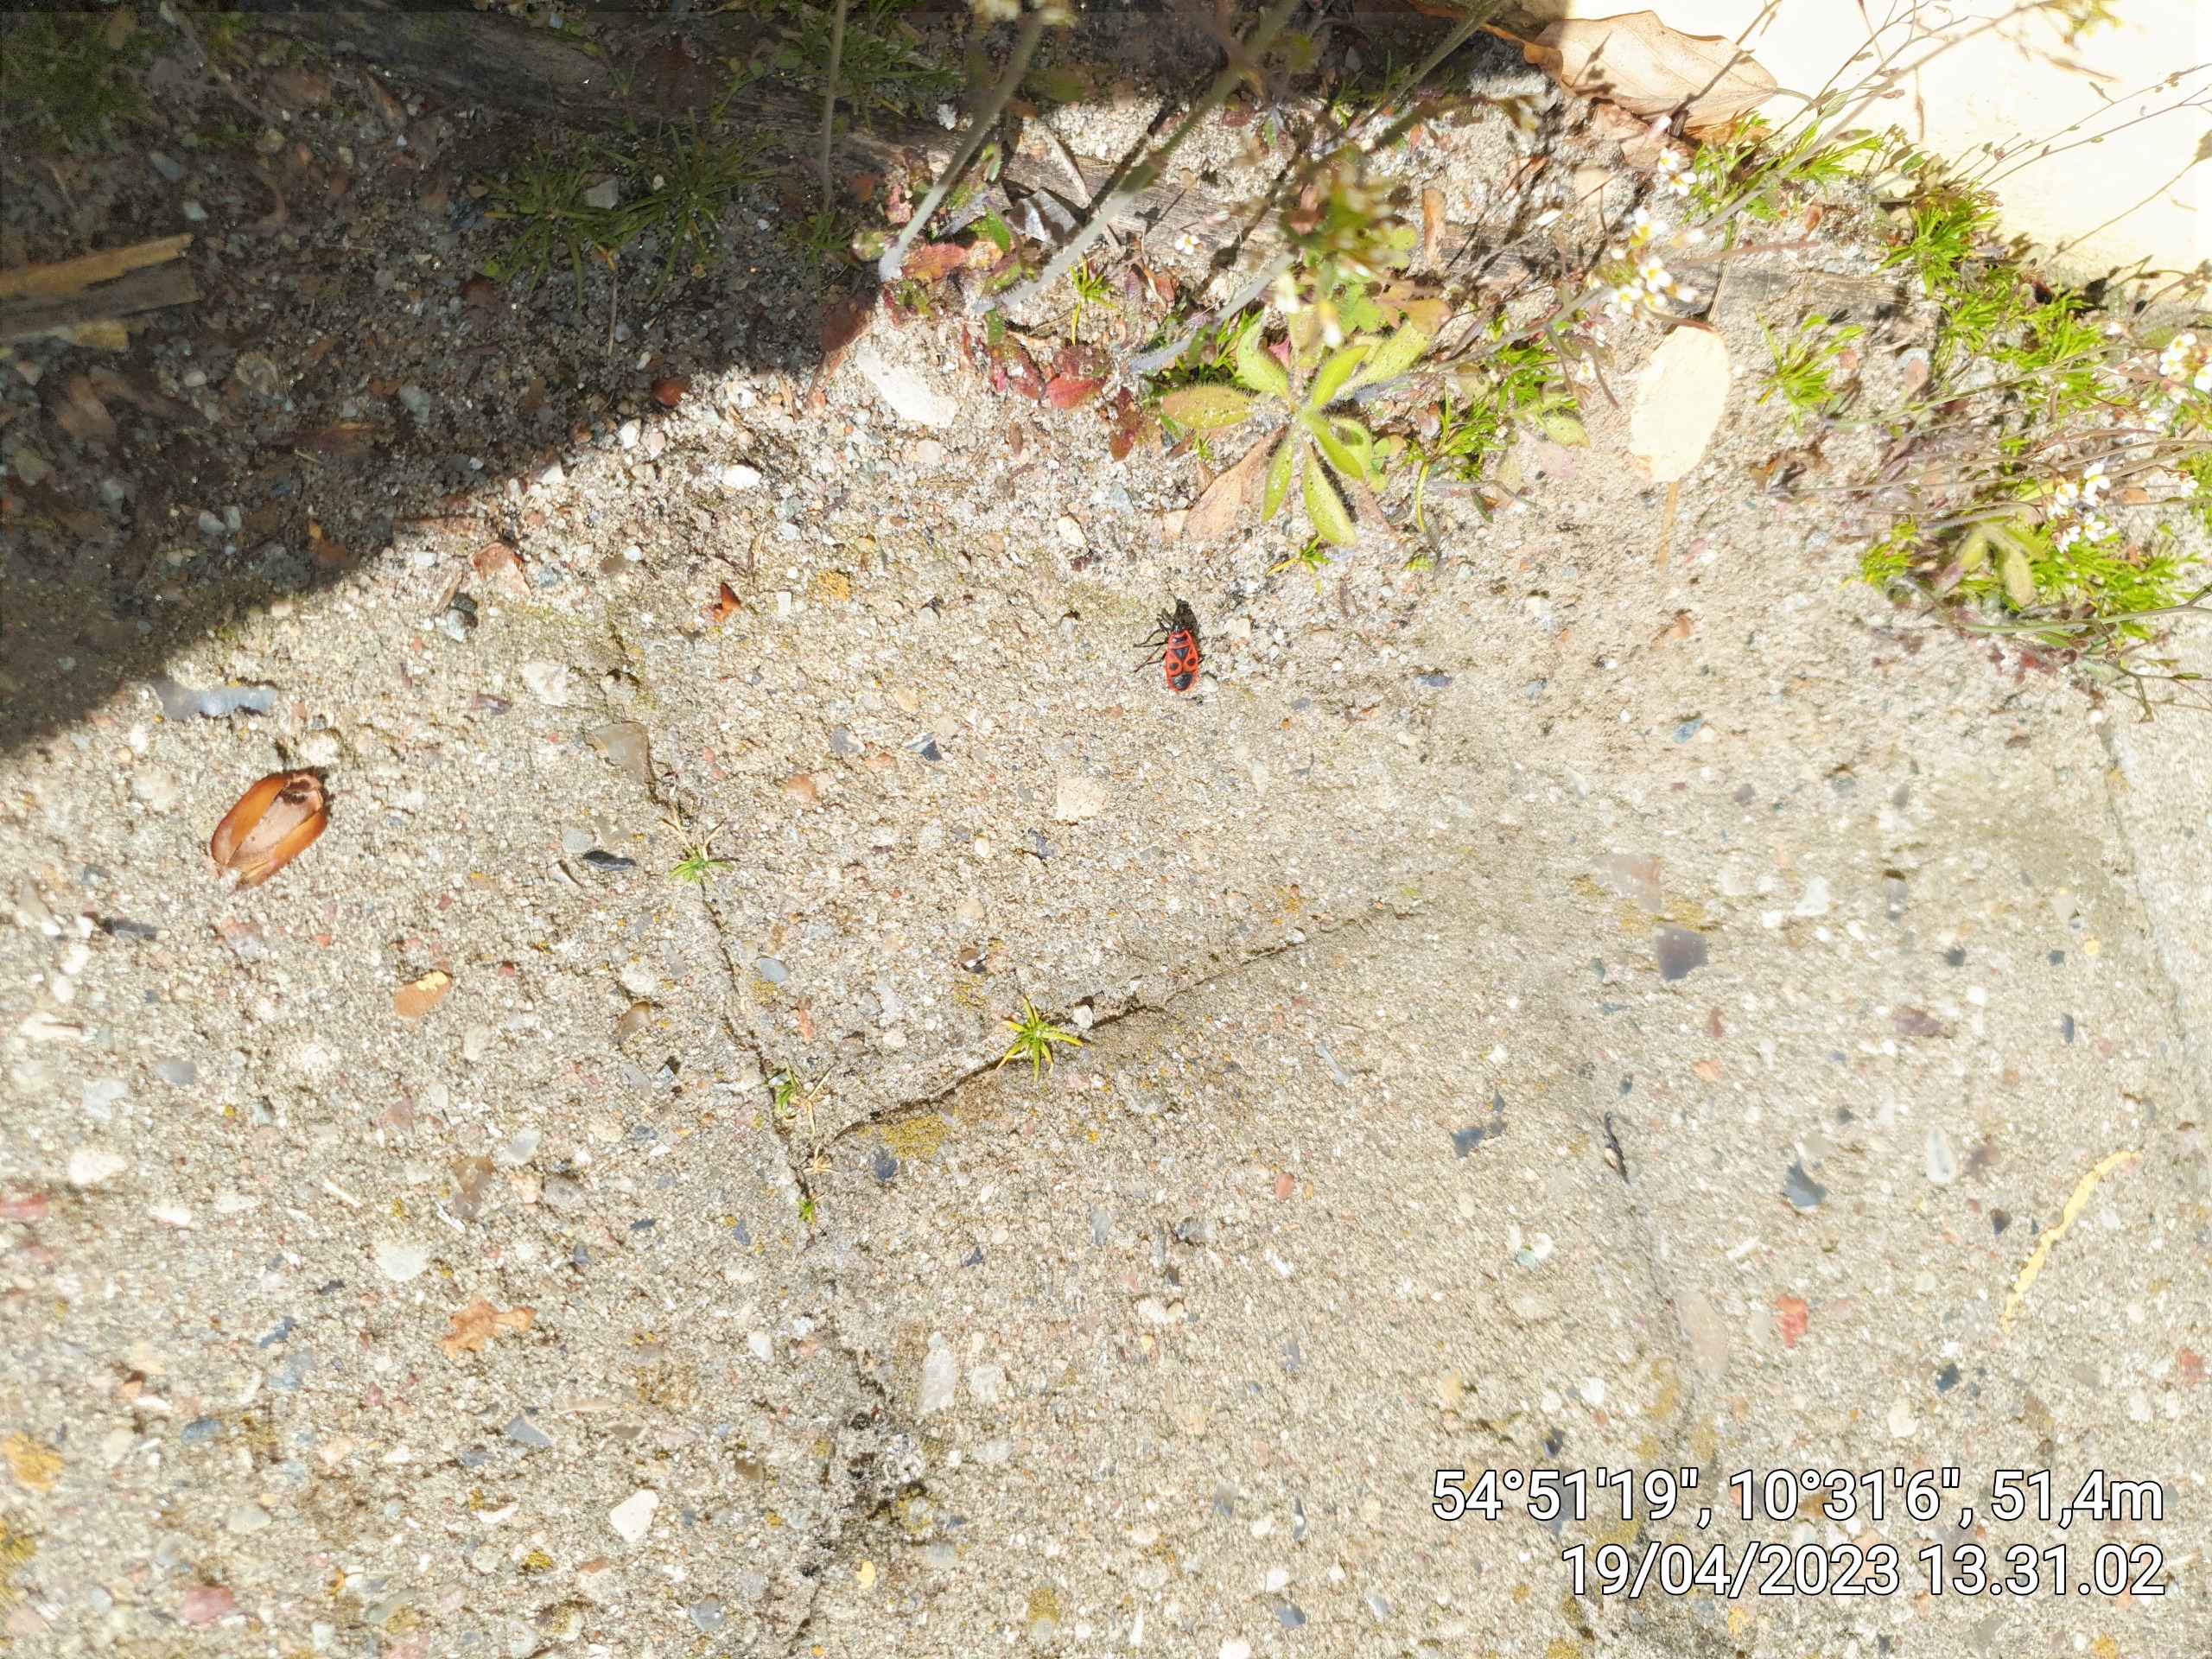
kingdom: Animalia
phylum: Arthropoda
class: Insecta
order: Hemiptera
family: Pyrrhocoridae
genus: Pyrrhocoris
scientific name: Pyrrhocoris apterus
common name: Ildtæge
